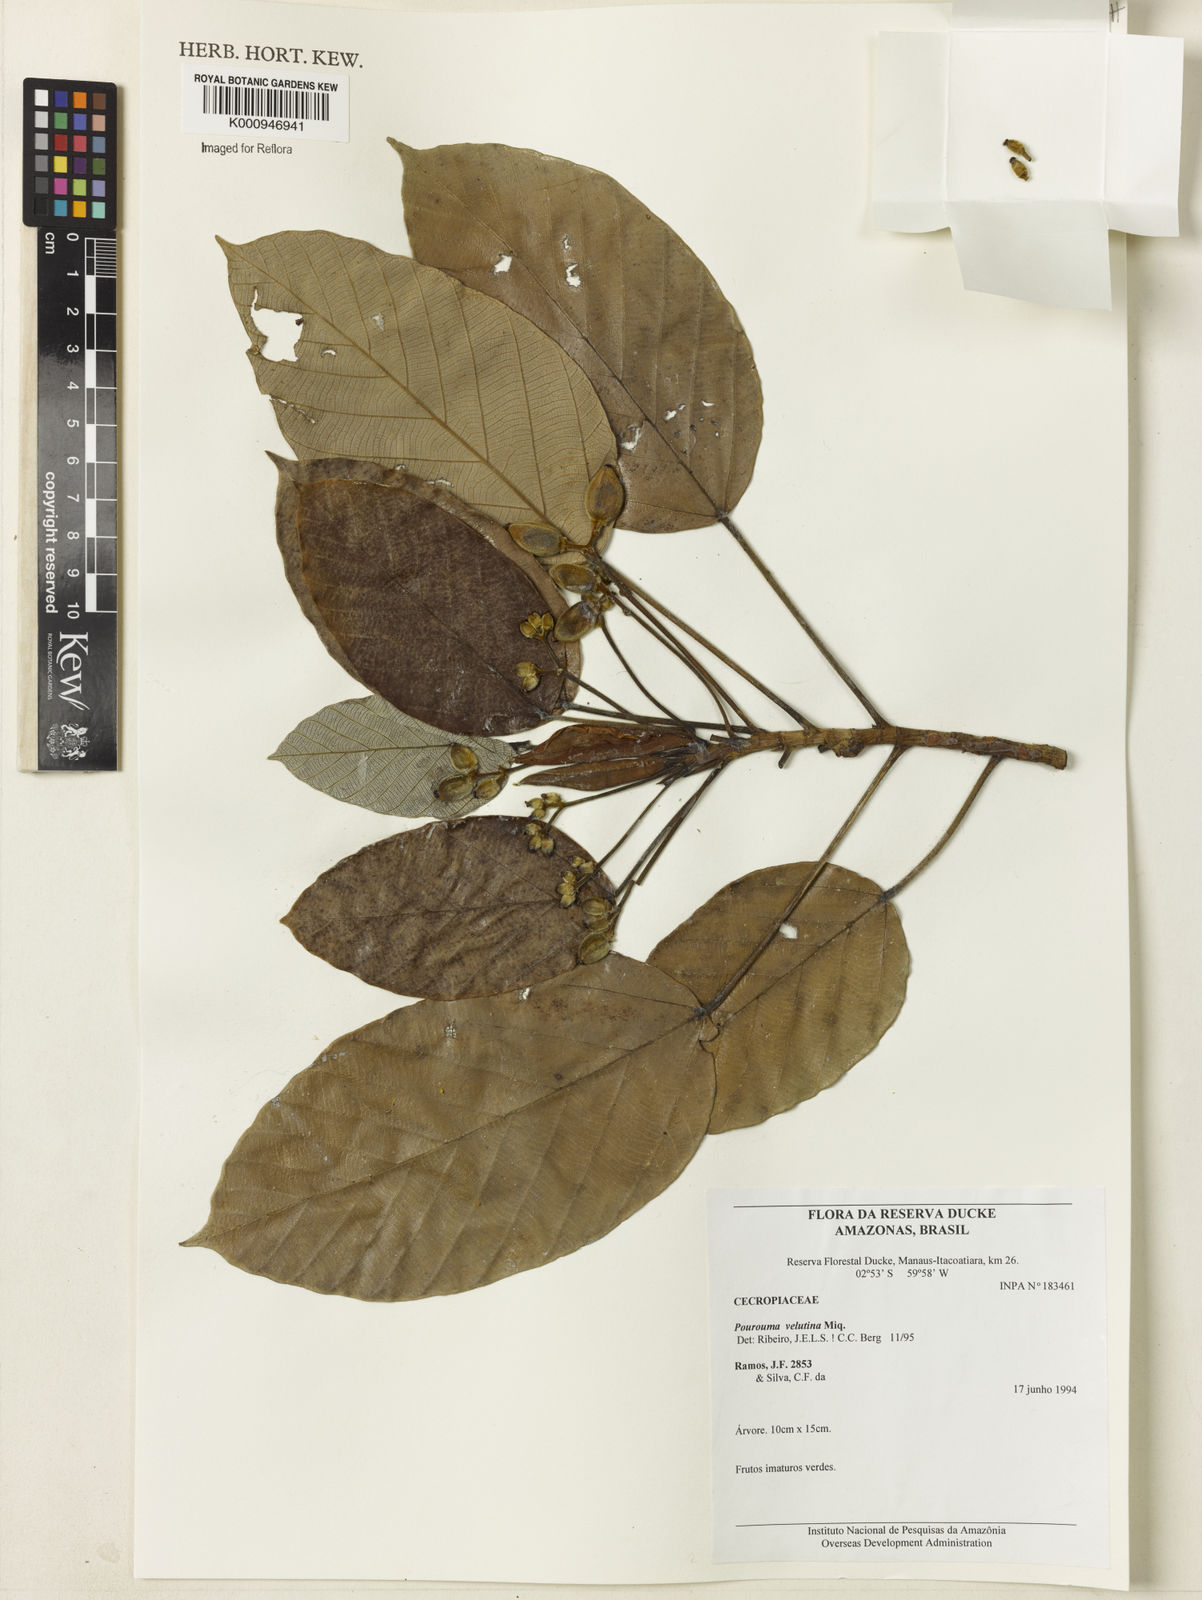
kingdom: Plantae
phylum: Tracheophyta
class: Magnoliopsida
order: Rosales
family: Urticaceae
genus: Pourouma
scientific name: Pourouma velutina
